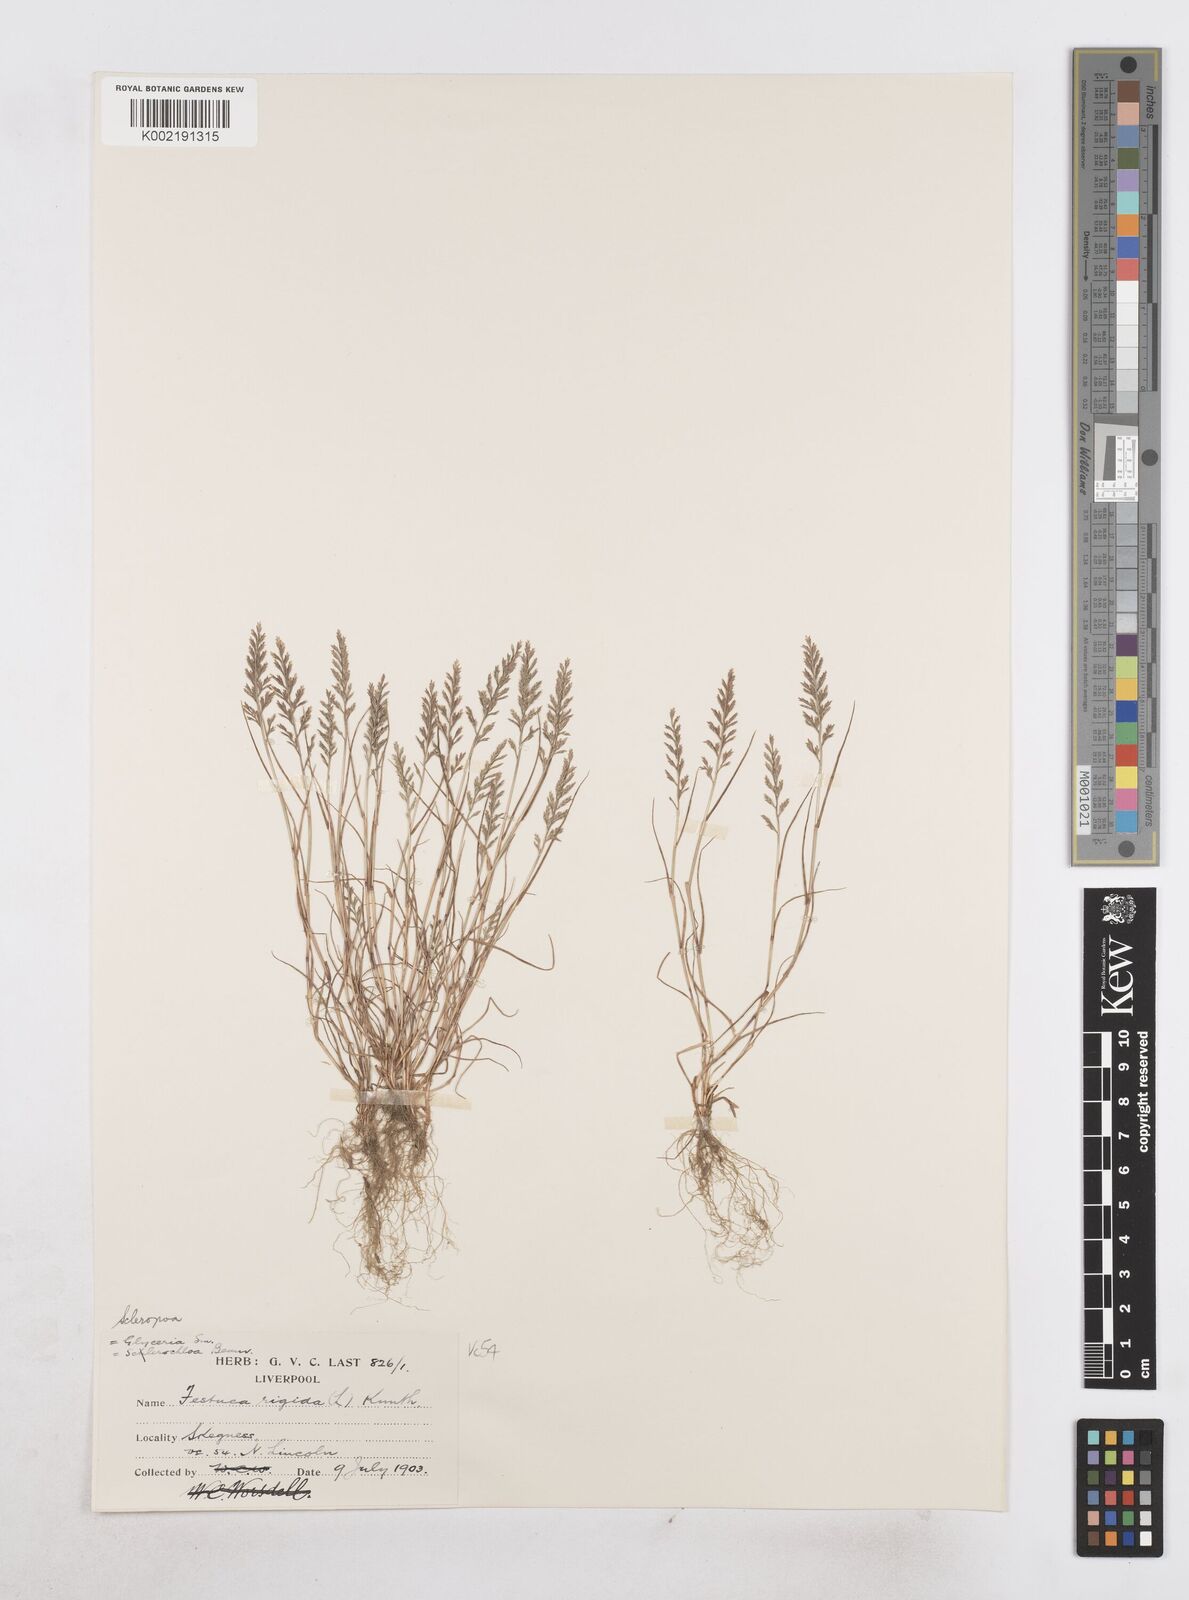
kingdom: Plantae
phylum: Tracheophyta
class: Liliopsida
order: Poales
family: Poaceae
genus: Catapodium
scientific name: Catapodium rigidum
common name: Fern-grass
